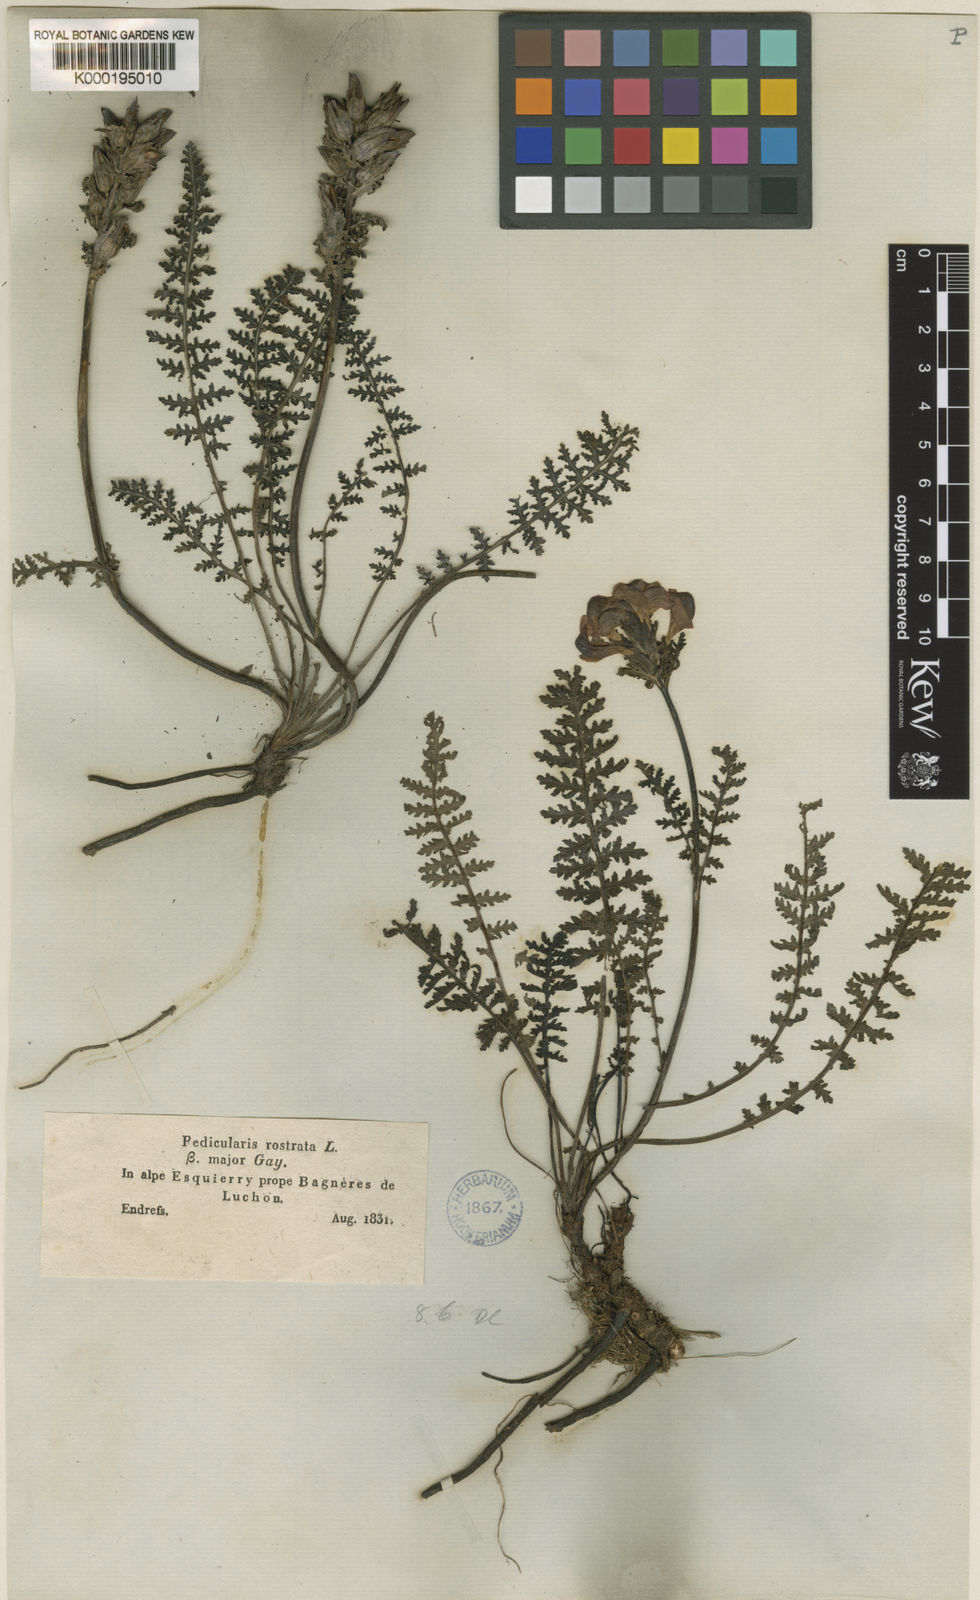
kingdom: Plantae
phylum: Tracheophyta
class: Magnoliopsida
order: Lamiales
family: Orobanchaceae
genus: Pedicularis
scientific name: Pedicularis pyrenaica
